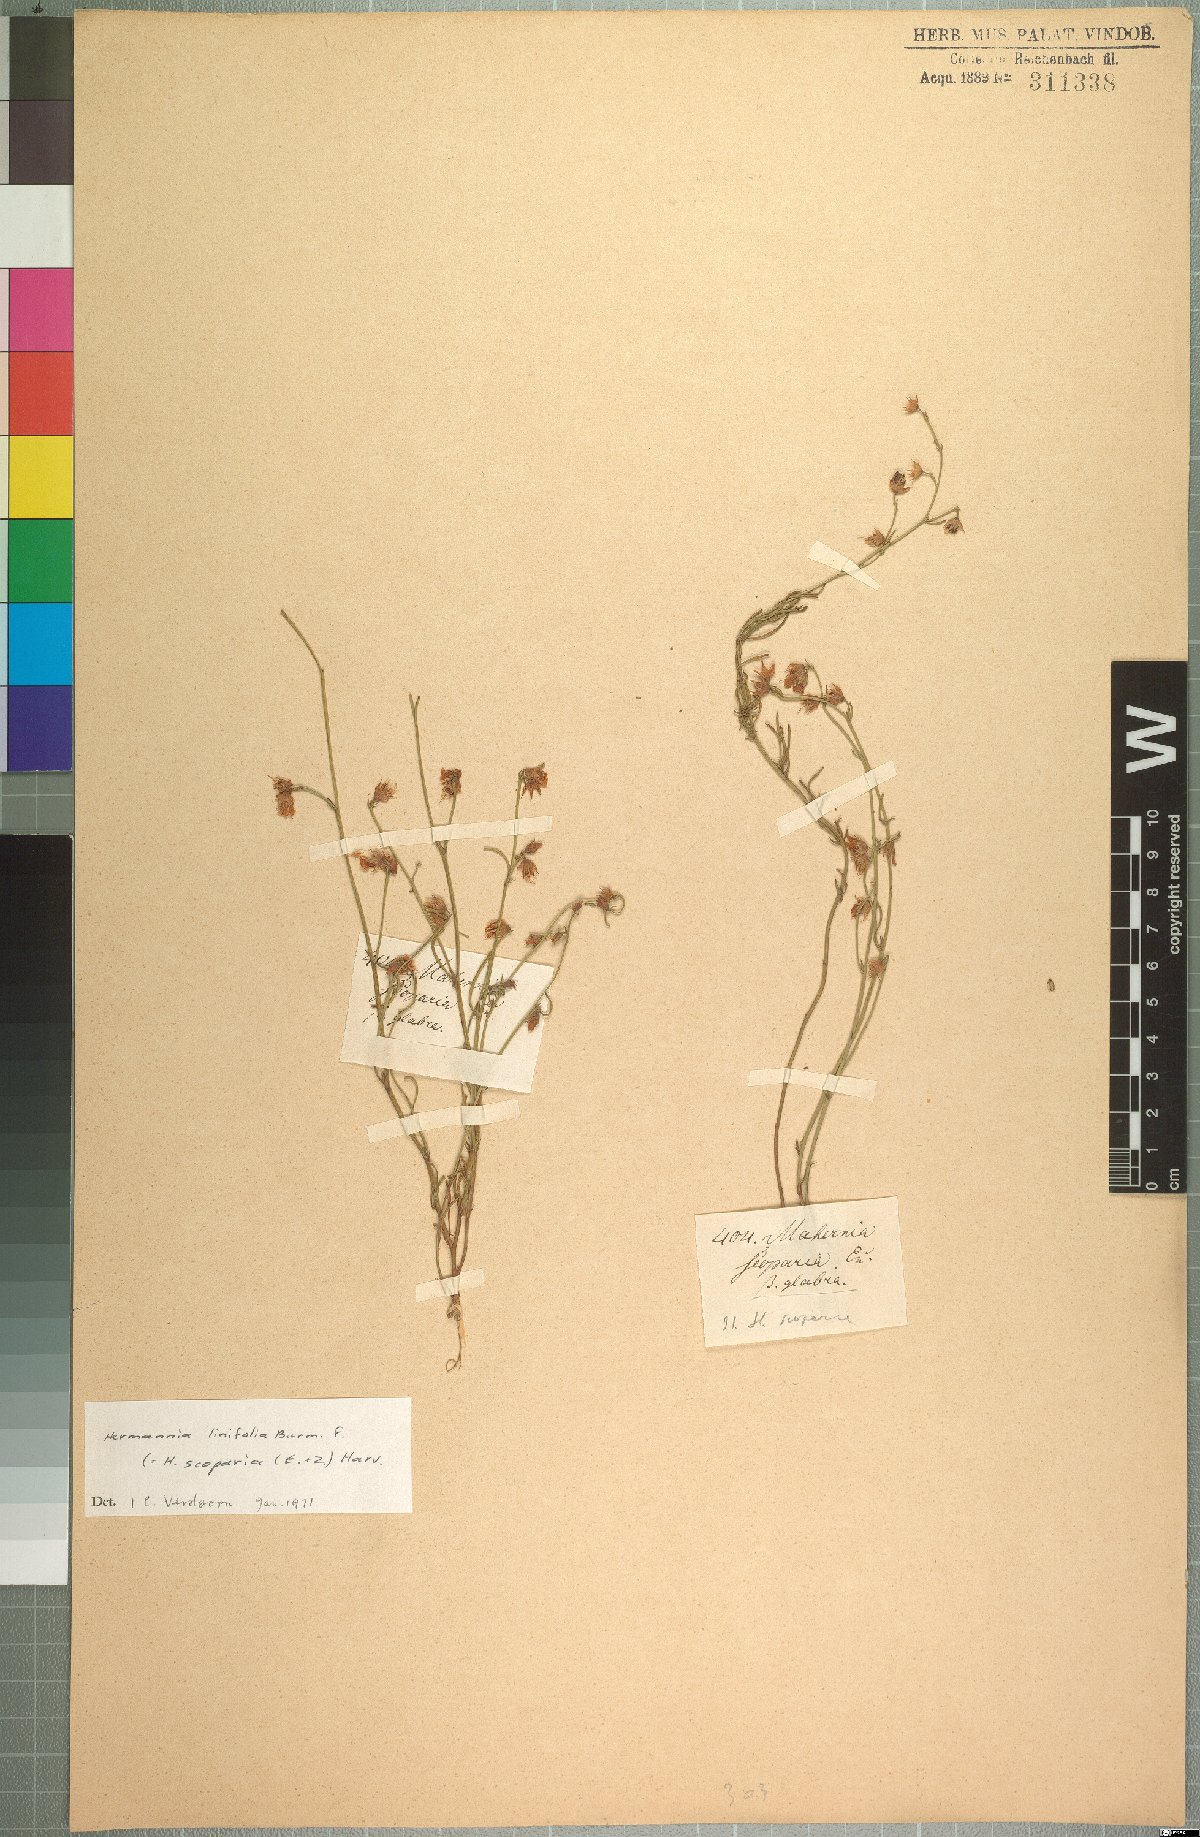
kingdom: Plantae
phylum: Tracheophyta
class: Magnoliopsida
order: Malvales
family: Malvaceae
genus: Hermannia
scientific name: Hermannia linifolia
